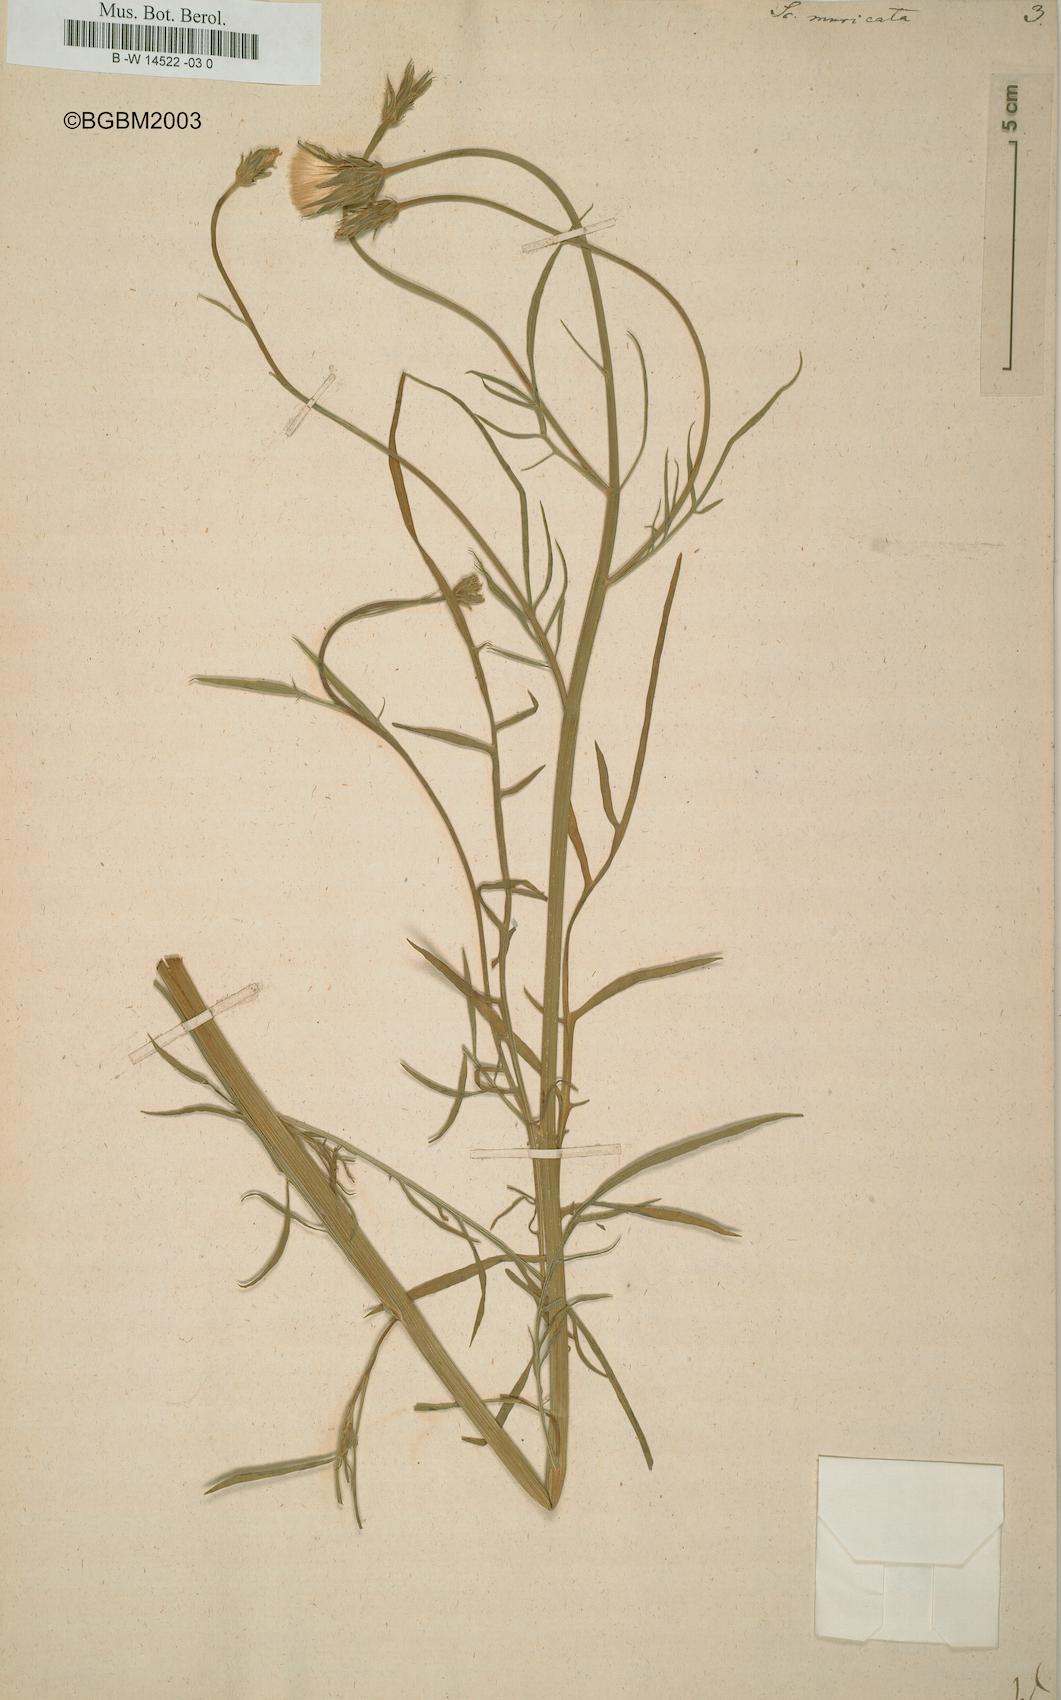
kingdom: Plantae
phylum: Tracheophyta
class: Magnoliopsida
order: Asterales
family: Asteraceae
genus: Scorzonera
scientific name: Scorzonera laciniata
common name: Cutleaf vipergrass
